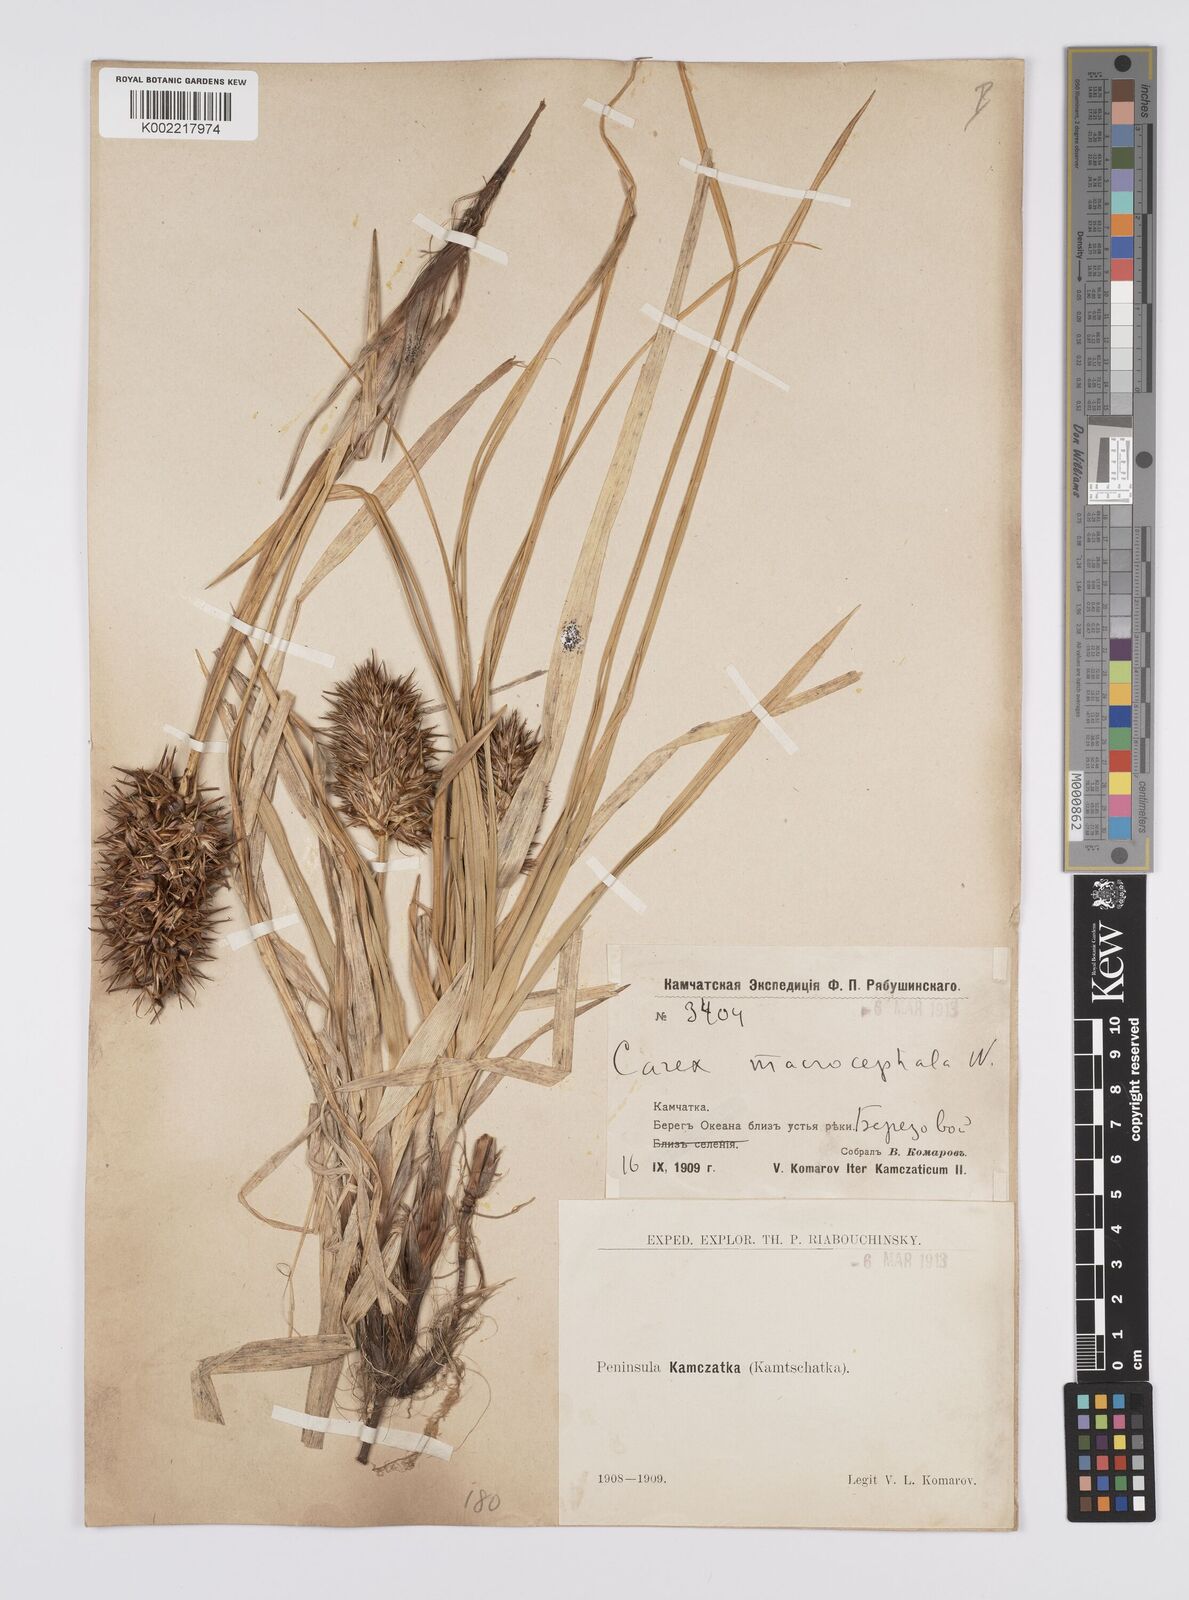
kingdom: Plantae
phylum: Tracheophyta
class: Liliopsida
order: Poales
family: Cyperaceae
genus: Carex
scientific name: Carex macrocephala
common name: Large-head sedge
